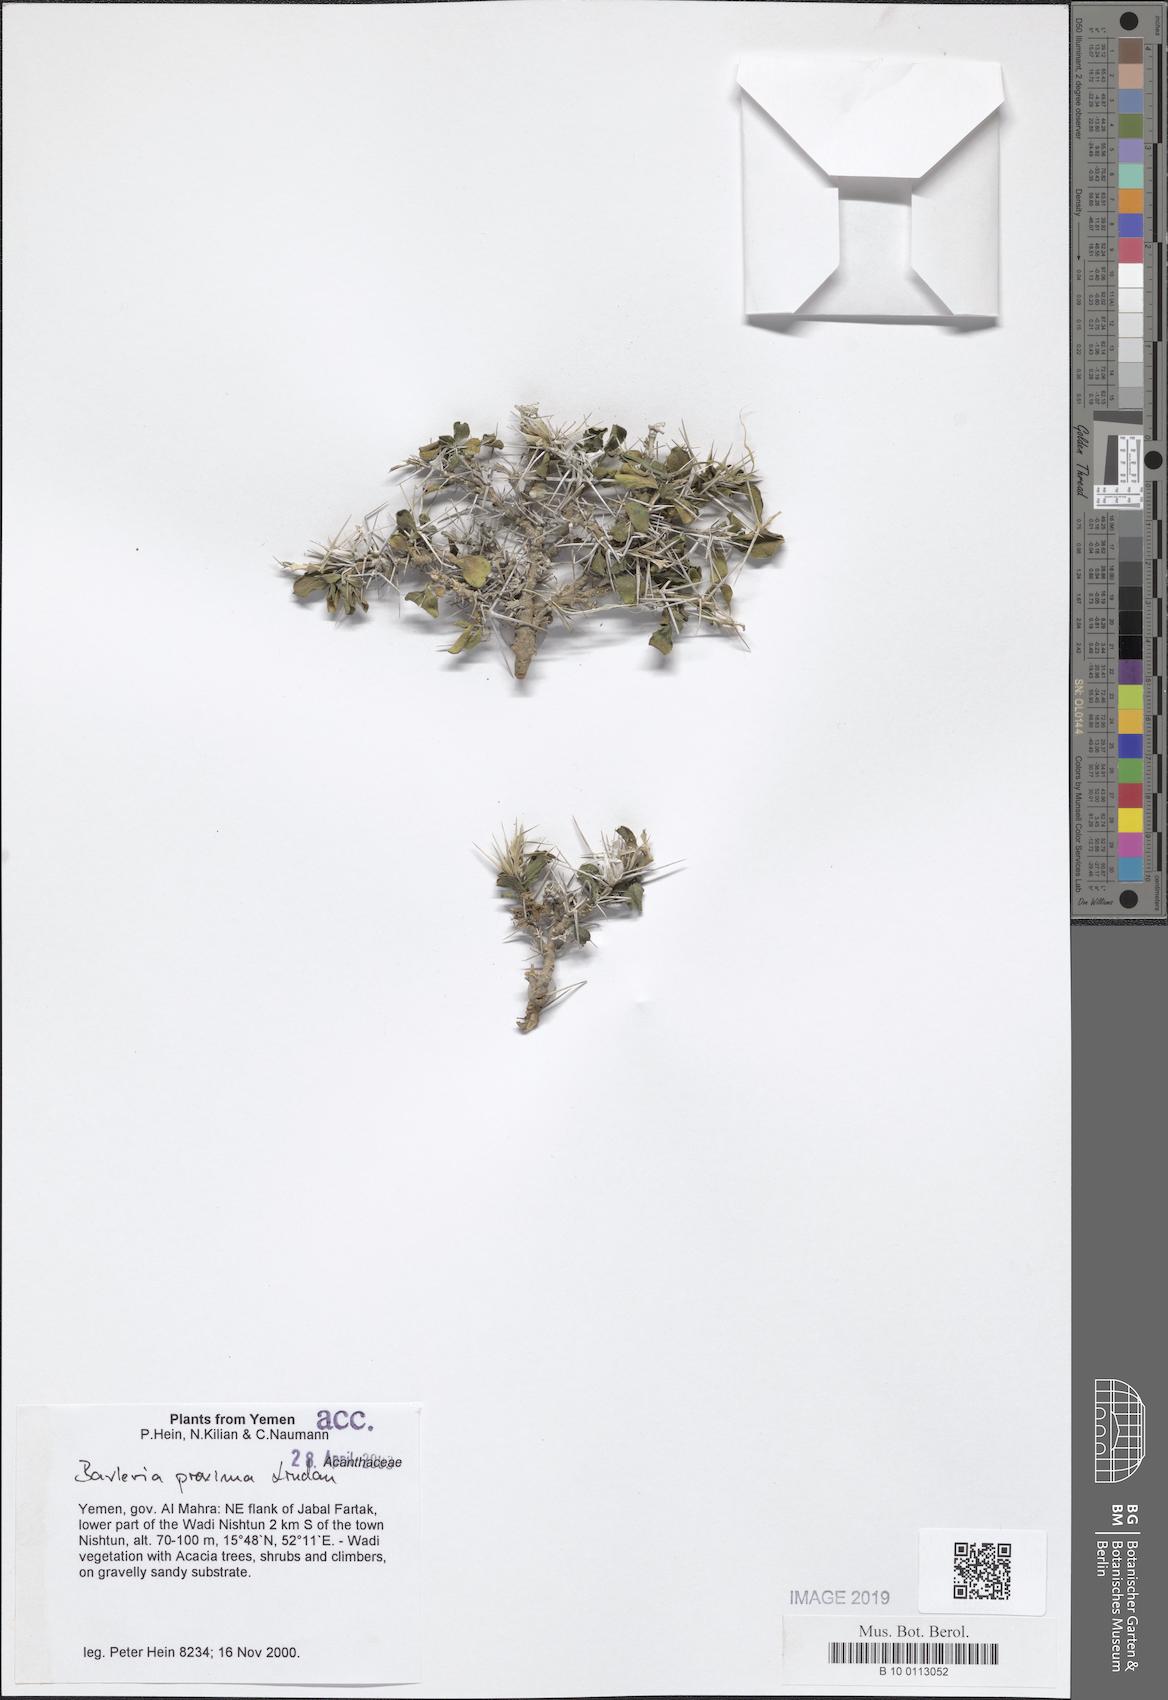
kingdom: Plantae
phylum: Tracheophyta
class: Magnoliopsida
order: Lamiales
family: Acanthaceae
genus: Barleria
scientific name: Barleria proxima
